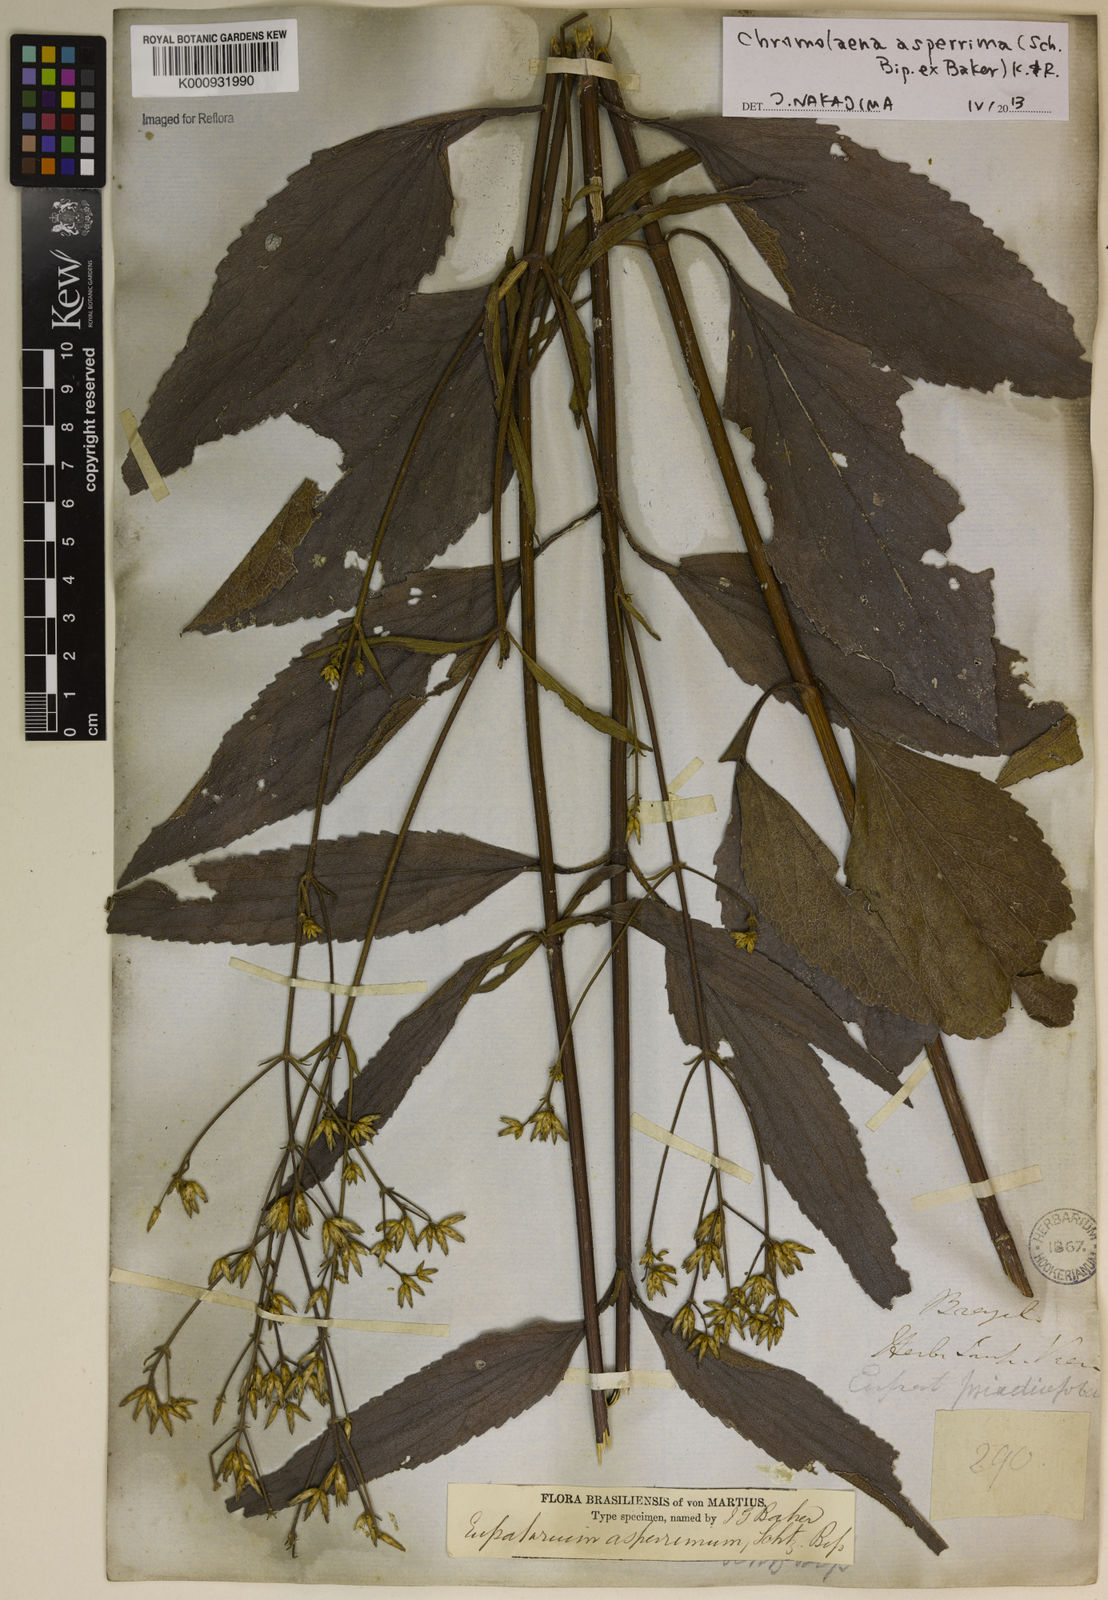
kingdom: Plantae
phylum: Tracheophyta
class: Magnoliopsida
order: Asterales
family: Asteraceae
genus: Chromolaena
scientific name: Chromolaena asperrima
